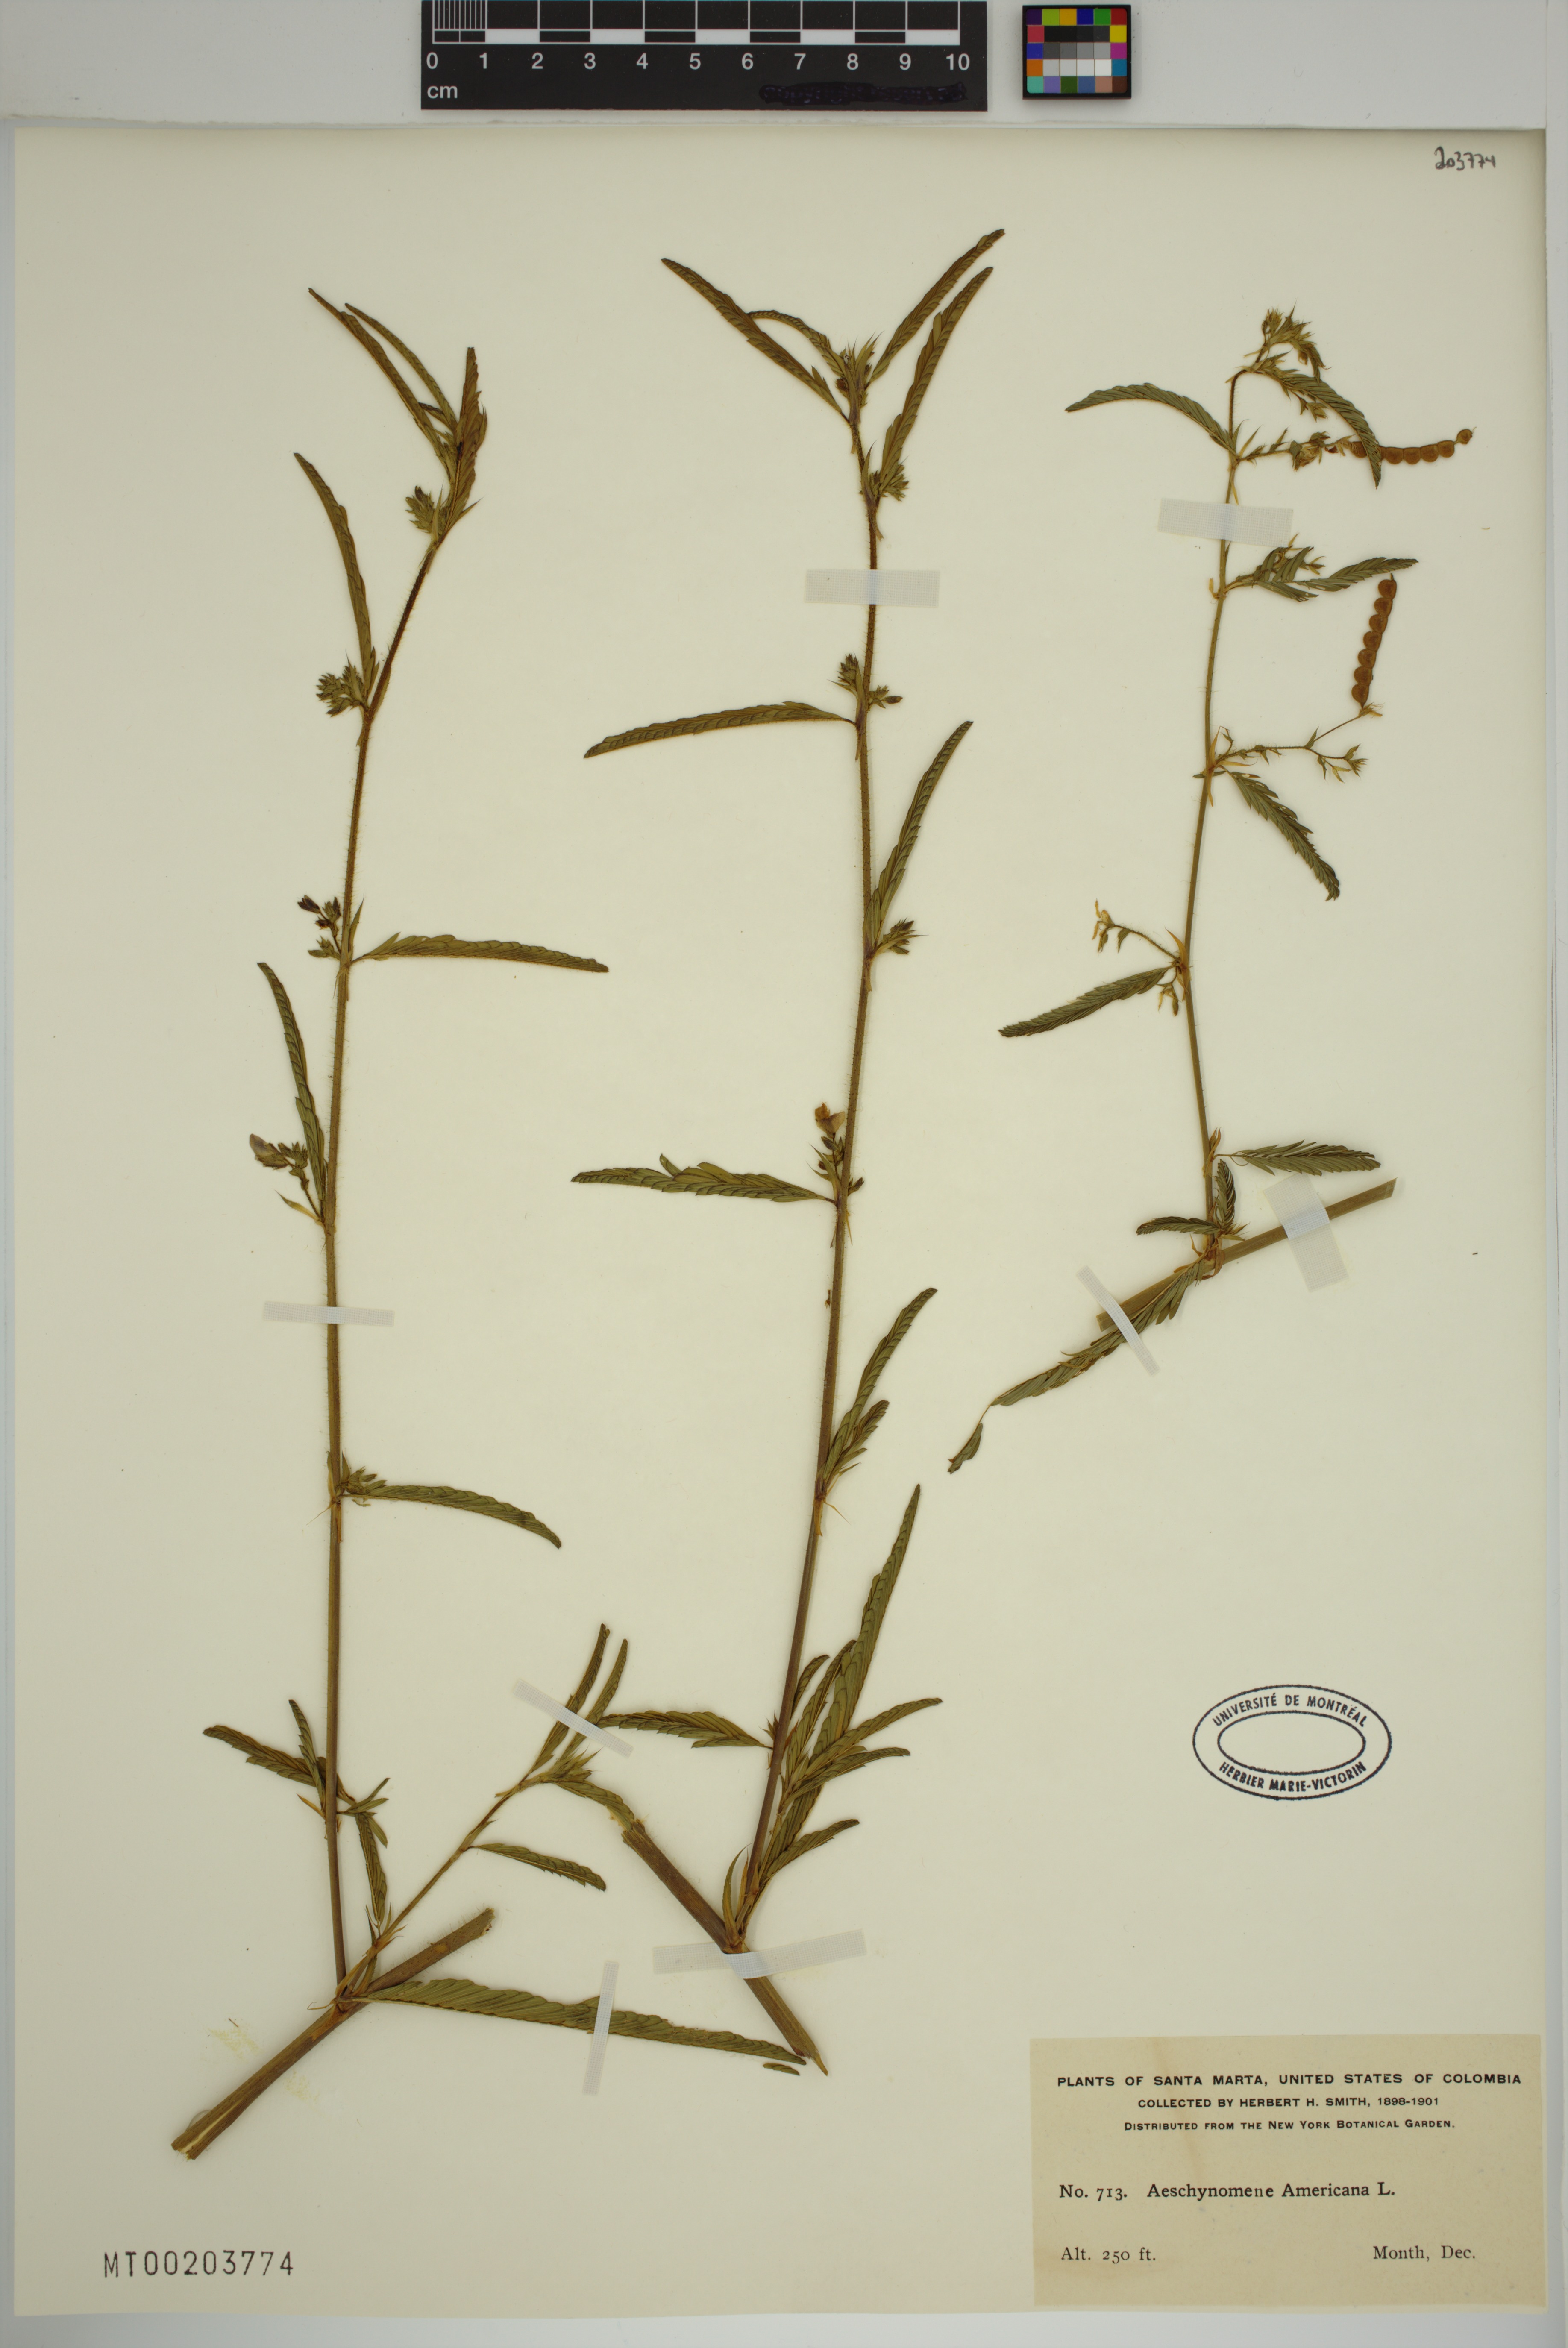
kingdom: Plantae
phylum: Tracheophyta
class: Magnoliopsida
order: Fabales
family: Fabaceae
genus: Aeschynomene
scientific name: Aeschynomene americana
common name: Joint-vetch
